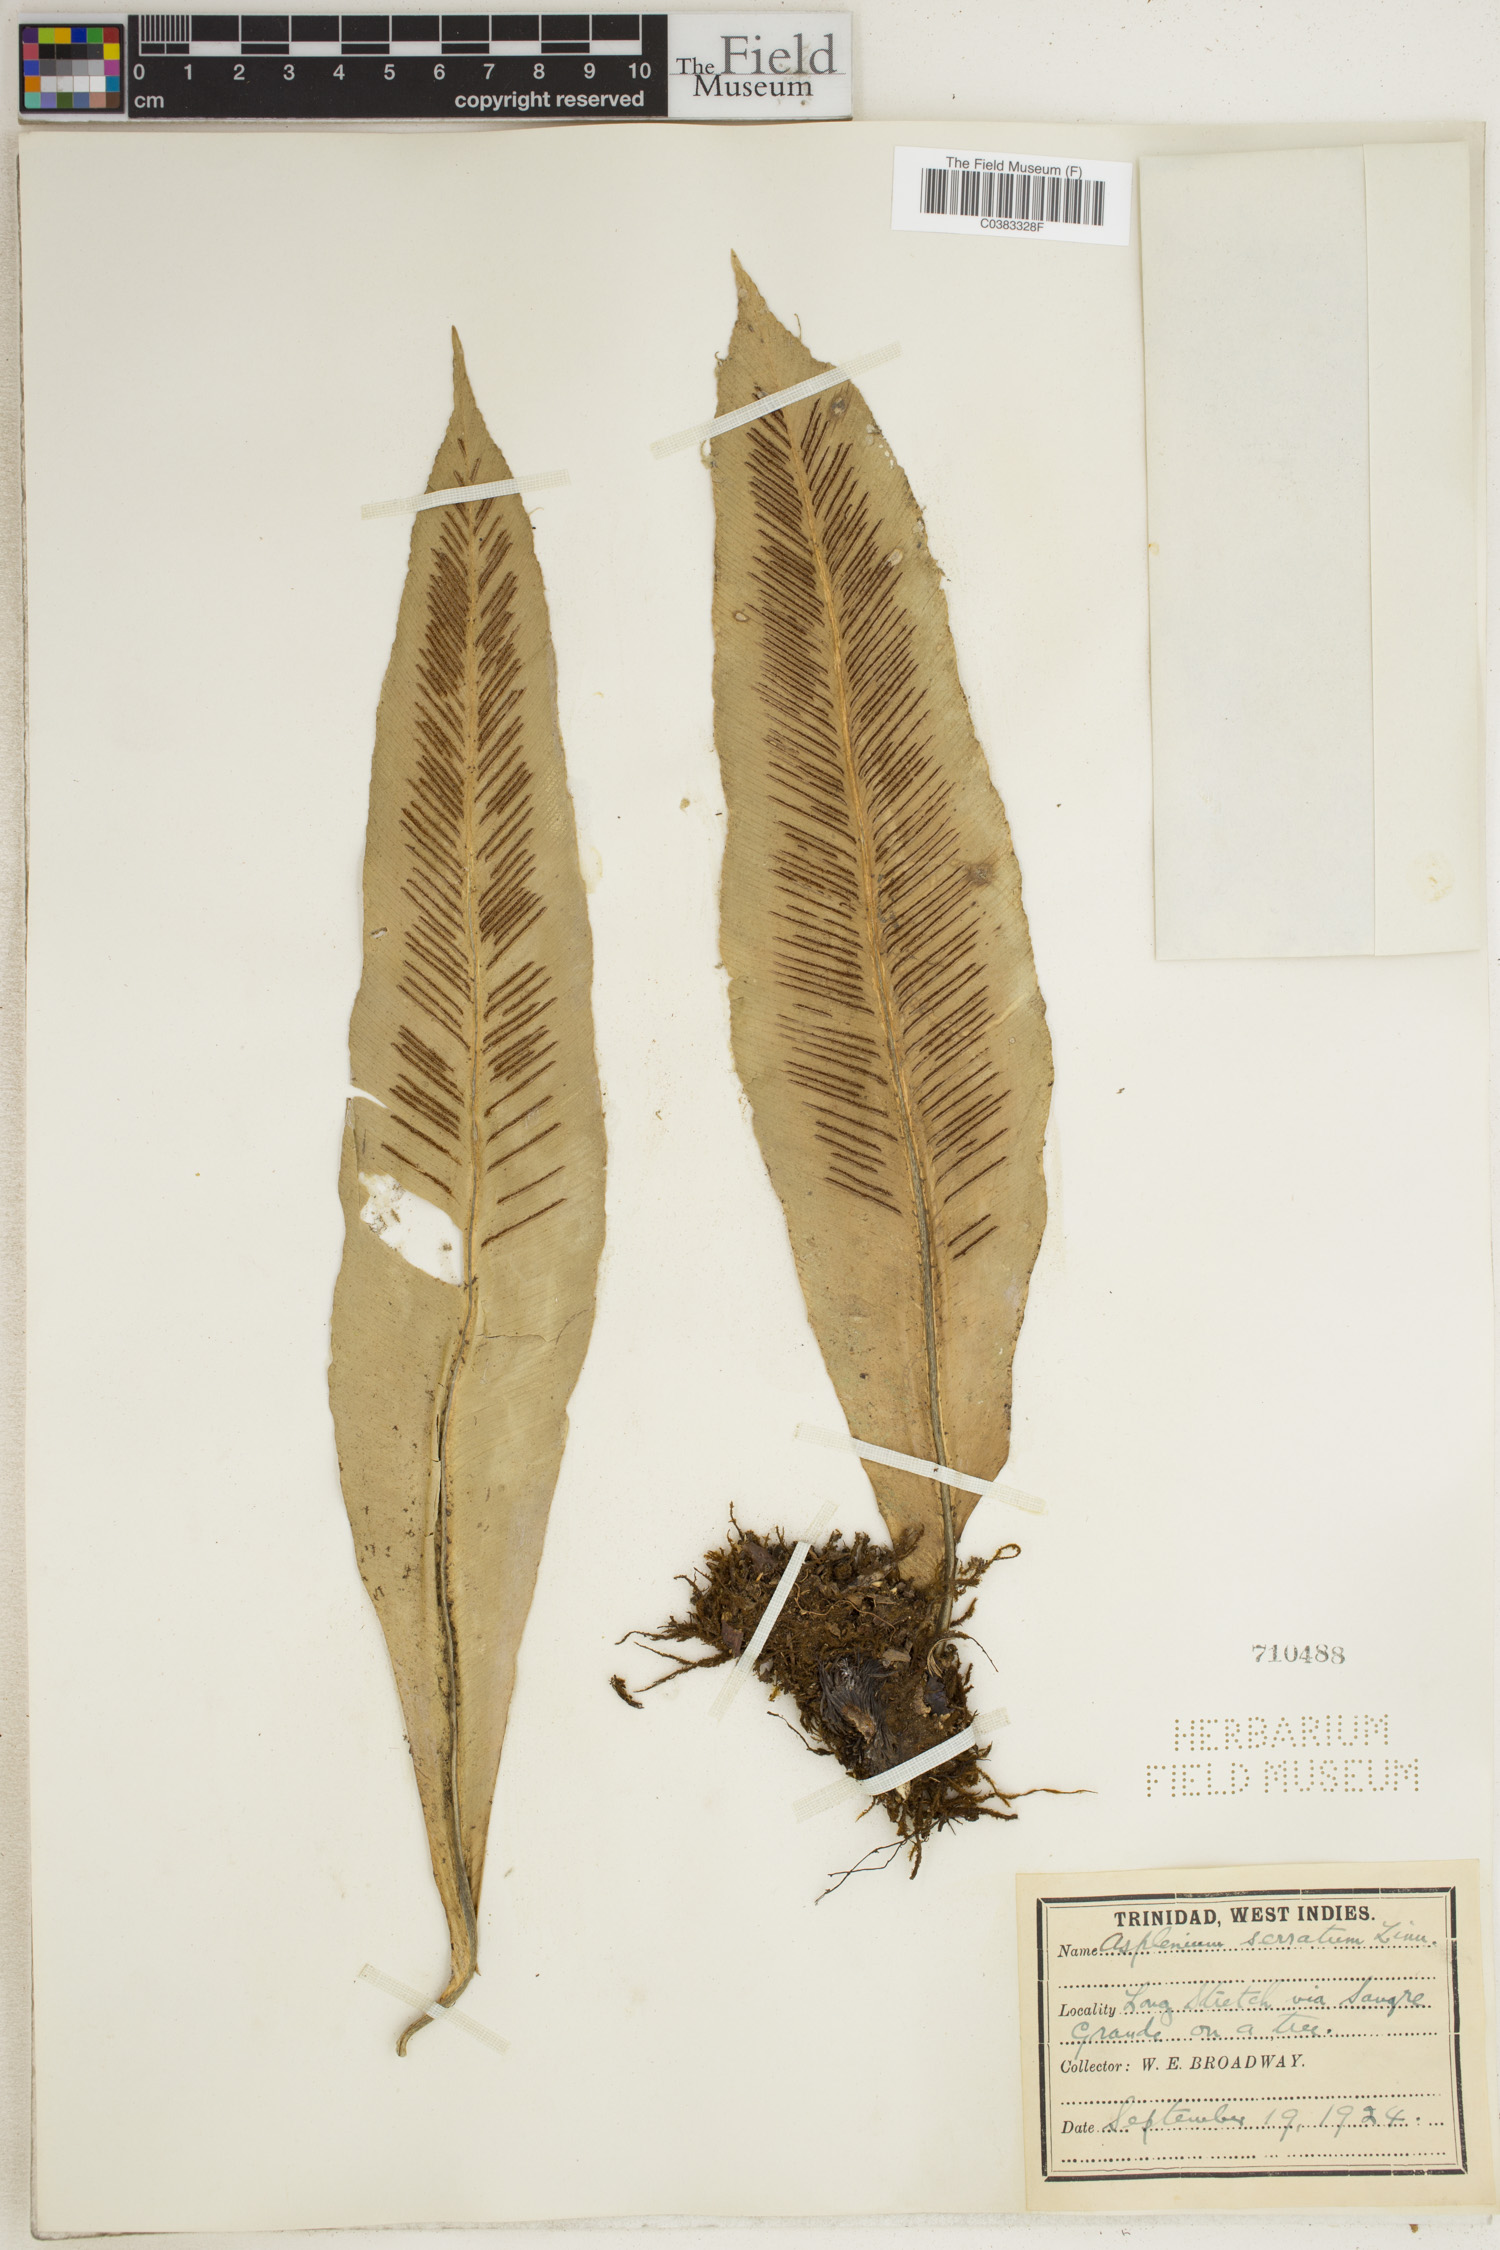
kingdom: Plantae
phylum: Tracheophyta
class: Polypodiopsida
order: Polypodiales
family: Aspleniaceae
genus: Asplenium
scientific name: Asplenium serratum
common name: Wild birdnest fern
